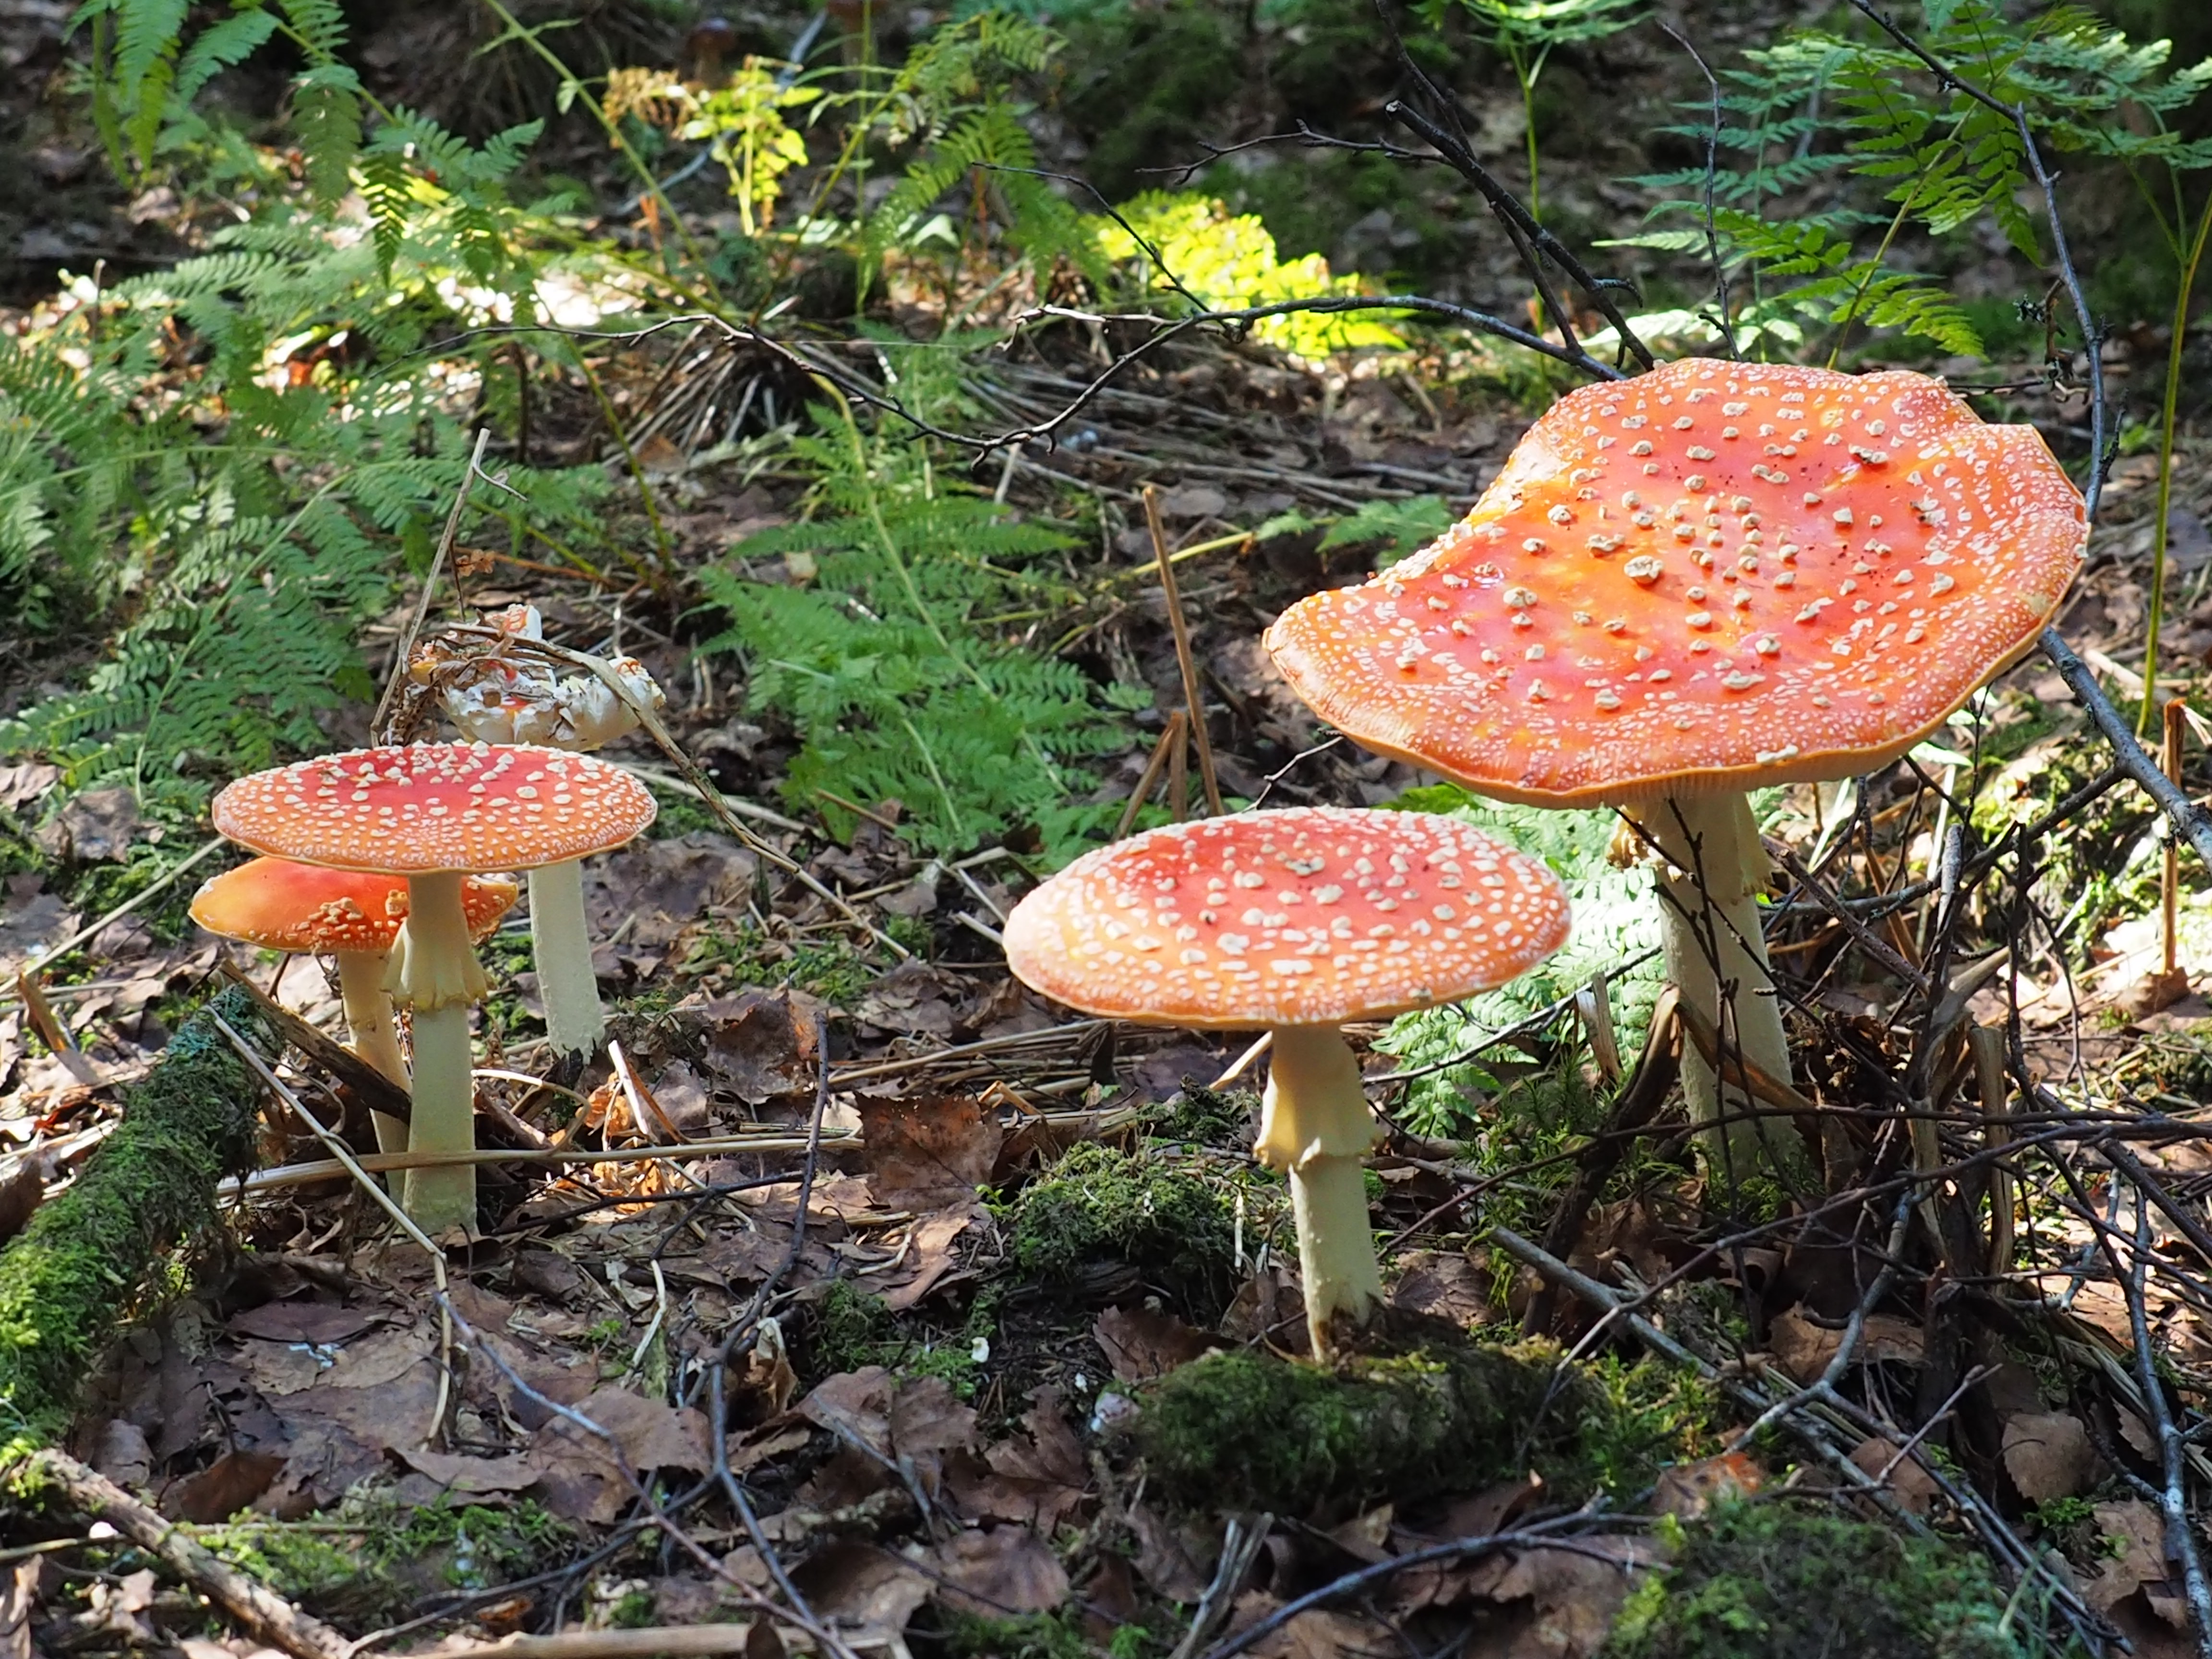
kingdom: Fungi
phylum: Basidiomycota
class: Agaricomycetes
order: Agaricales
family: Amanitaceae
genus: Amanita
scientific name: Amanita muscaria
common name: Fly agaric
